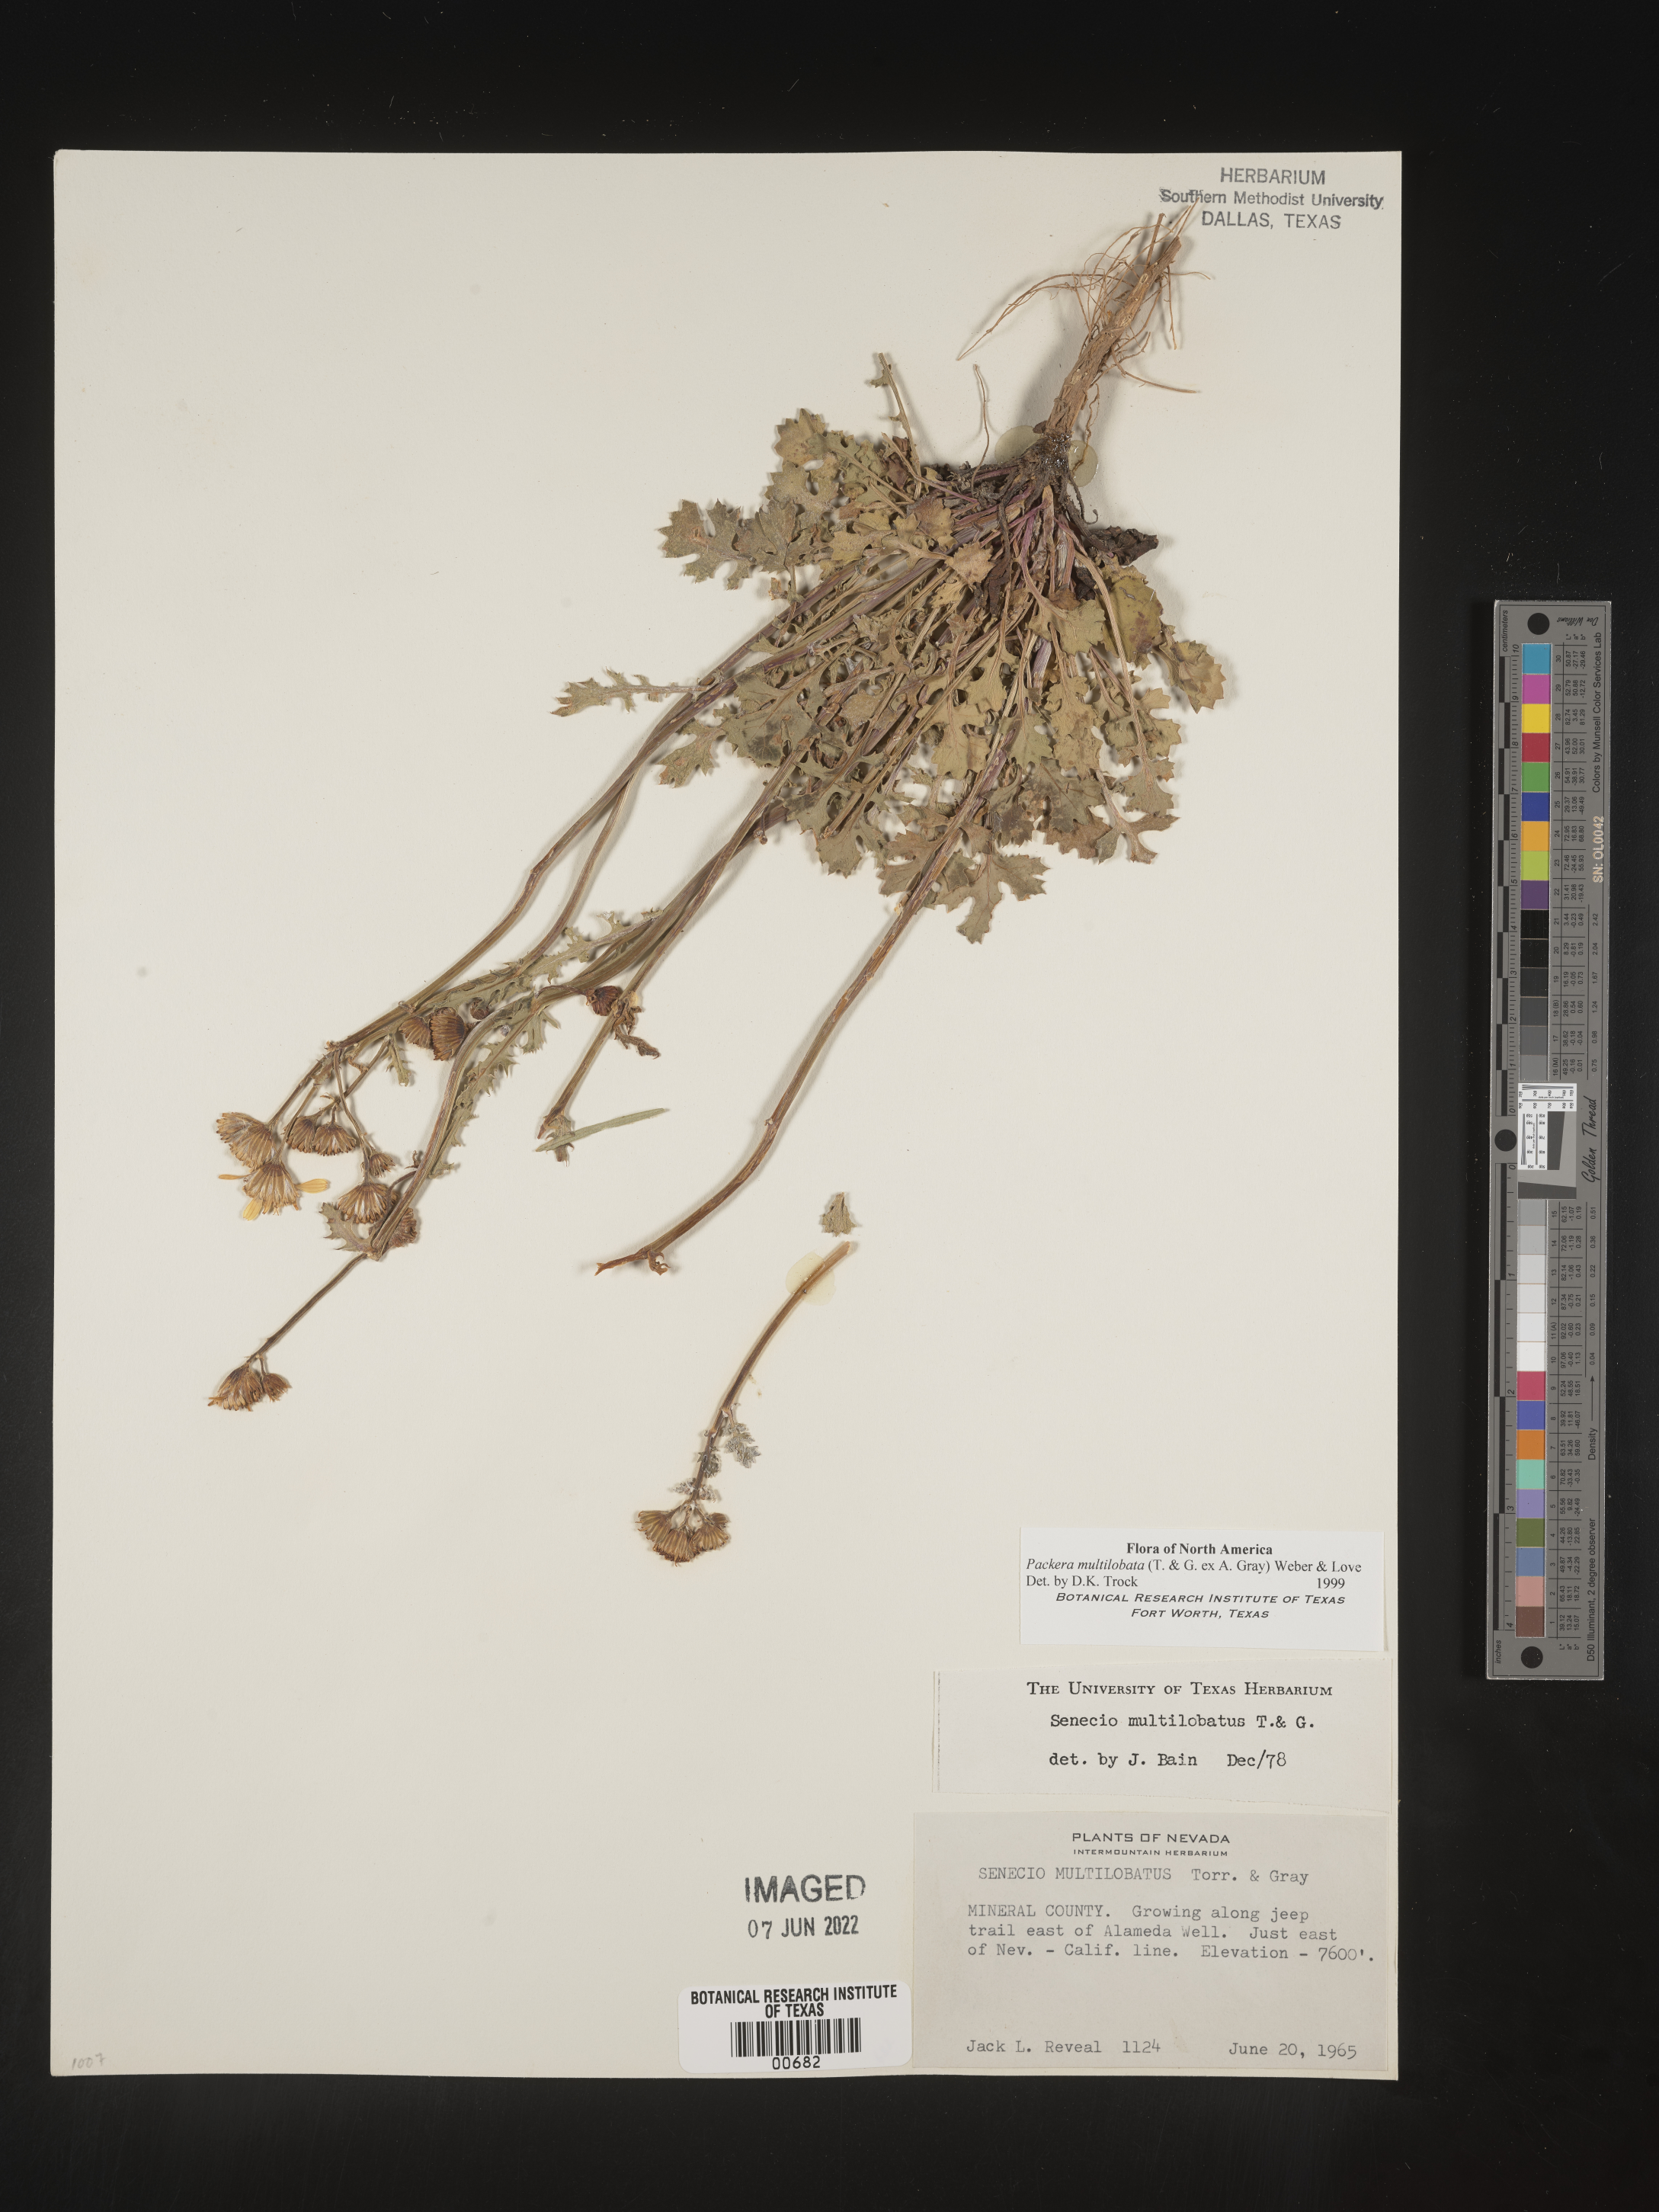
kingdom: Plantae
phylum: Tracheophyta
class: Magnoliopsida
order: Asterales
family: Asteraceae
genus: Packera
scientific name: Packera multilobata
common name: Lobe-leaf groundsel
